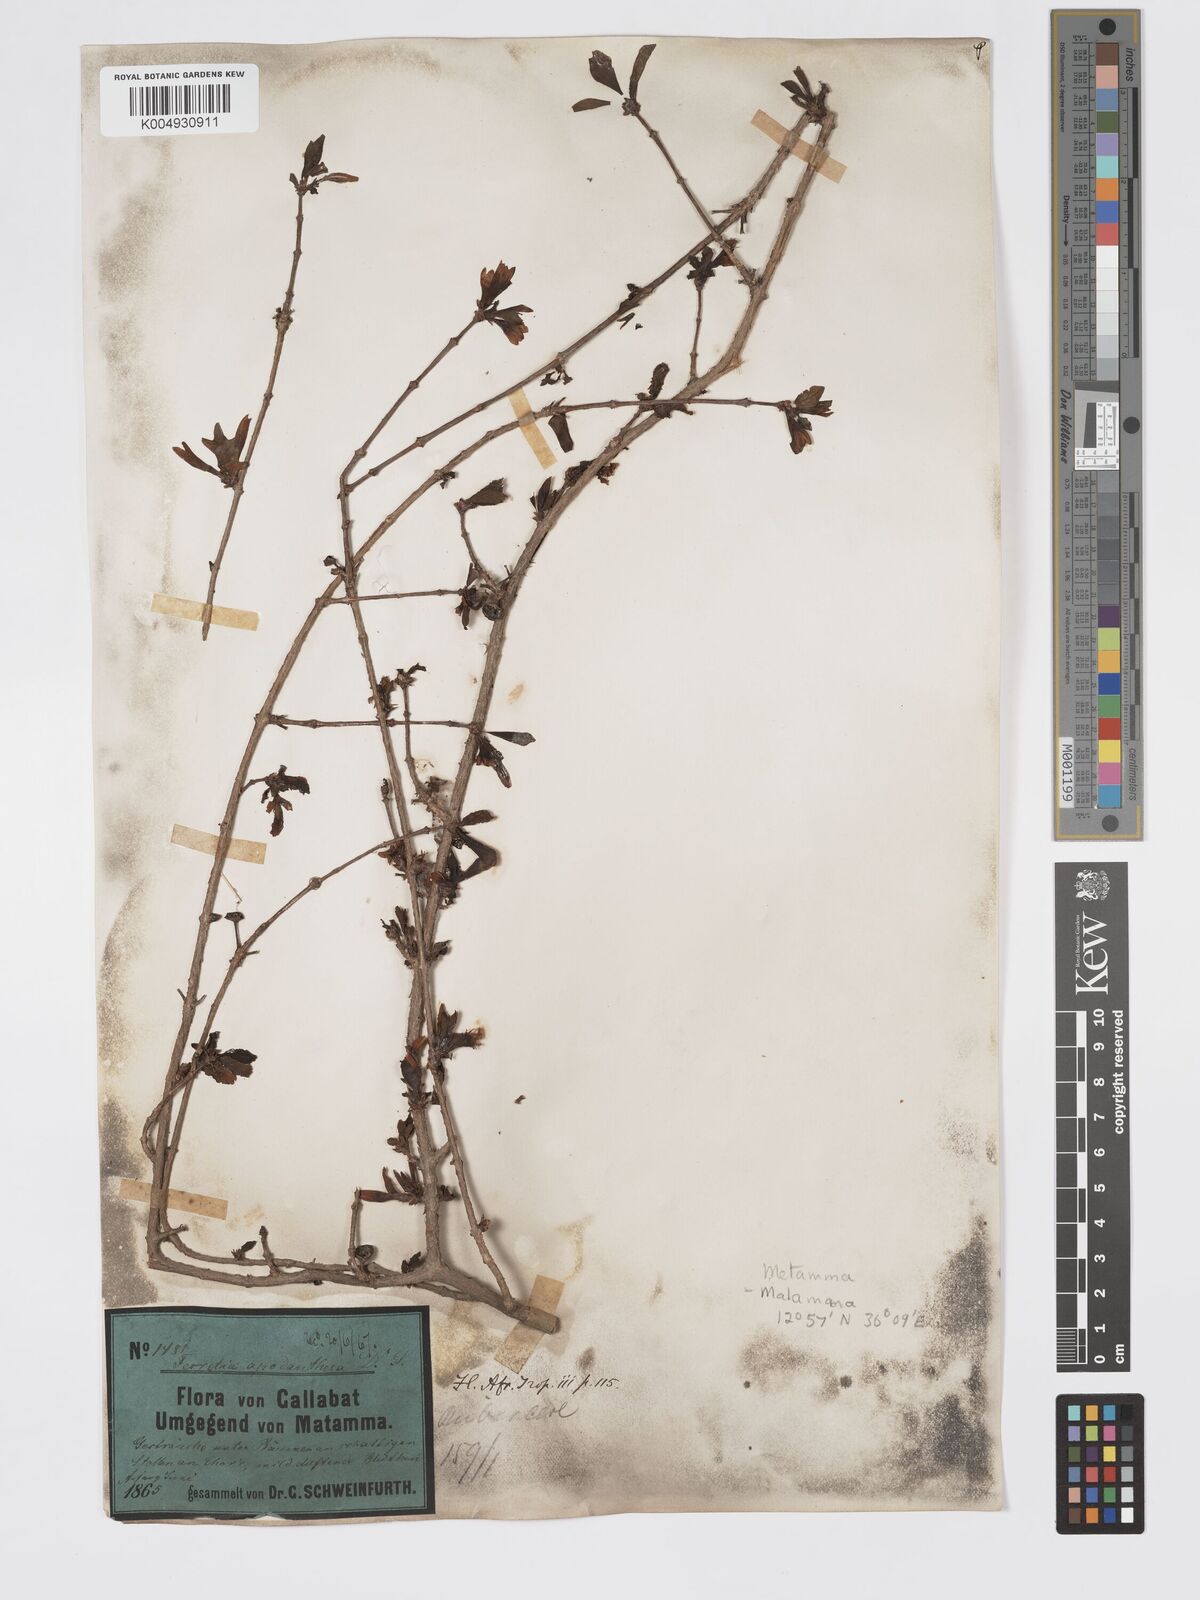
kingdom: Plantae
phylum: Tracheophyta
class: Magnoliopsida
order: Gentianales
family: Rubiaceae
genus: Feretia
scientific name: Feretia apodanthera
